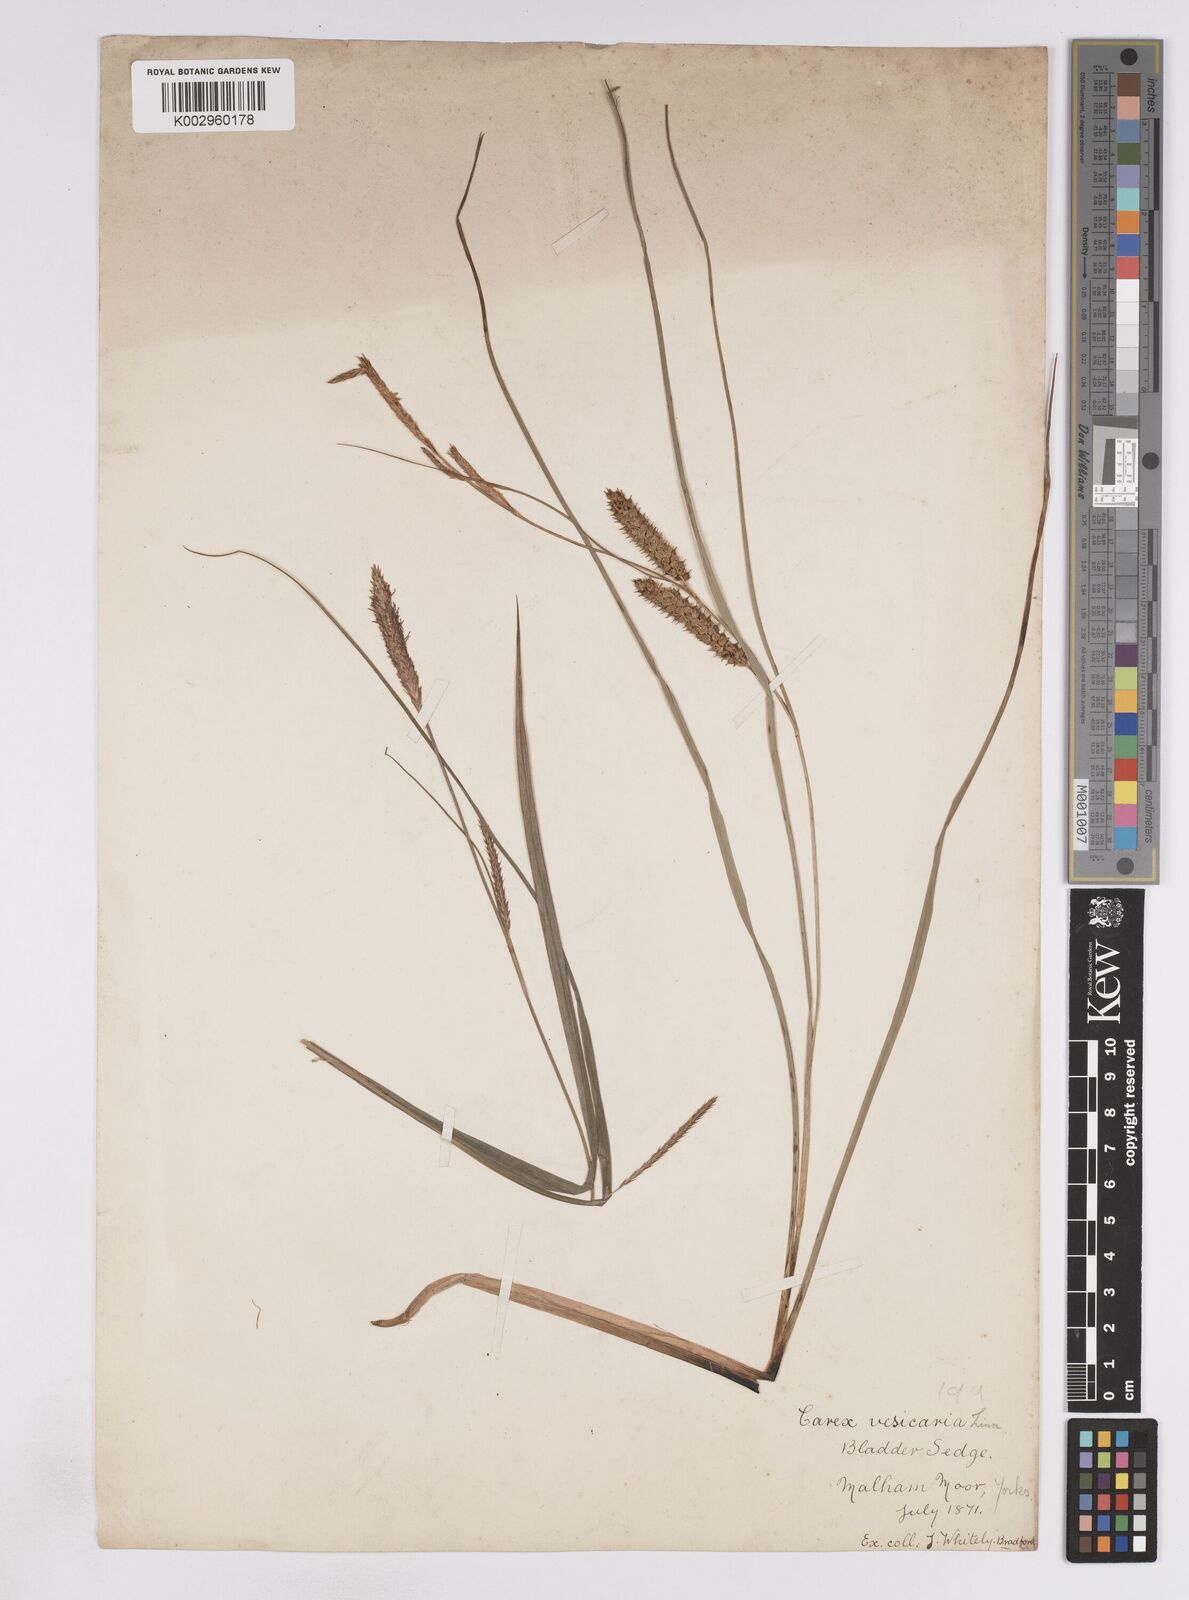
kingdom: Plantae
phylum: Tracheophyta
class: Liliopsida
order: Poales
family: Cyperaceae
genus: Carex
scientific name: Carex vesicaria
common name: Bladder-sedge
